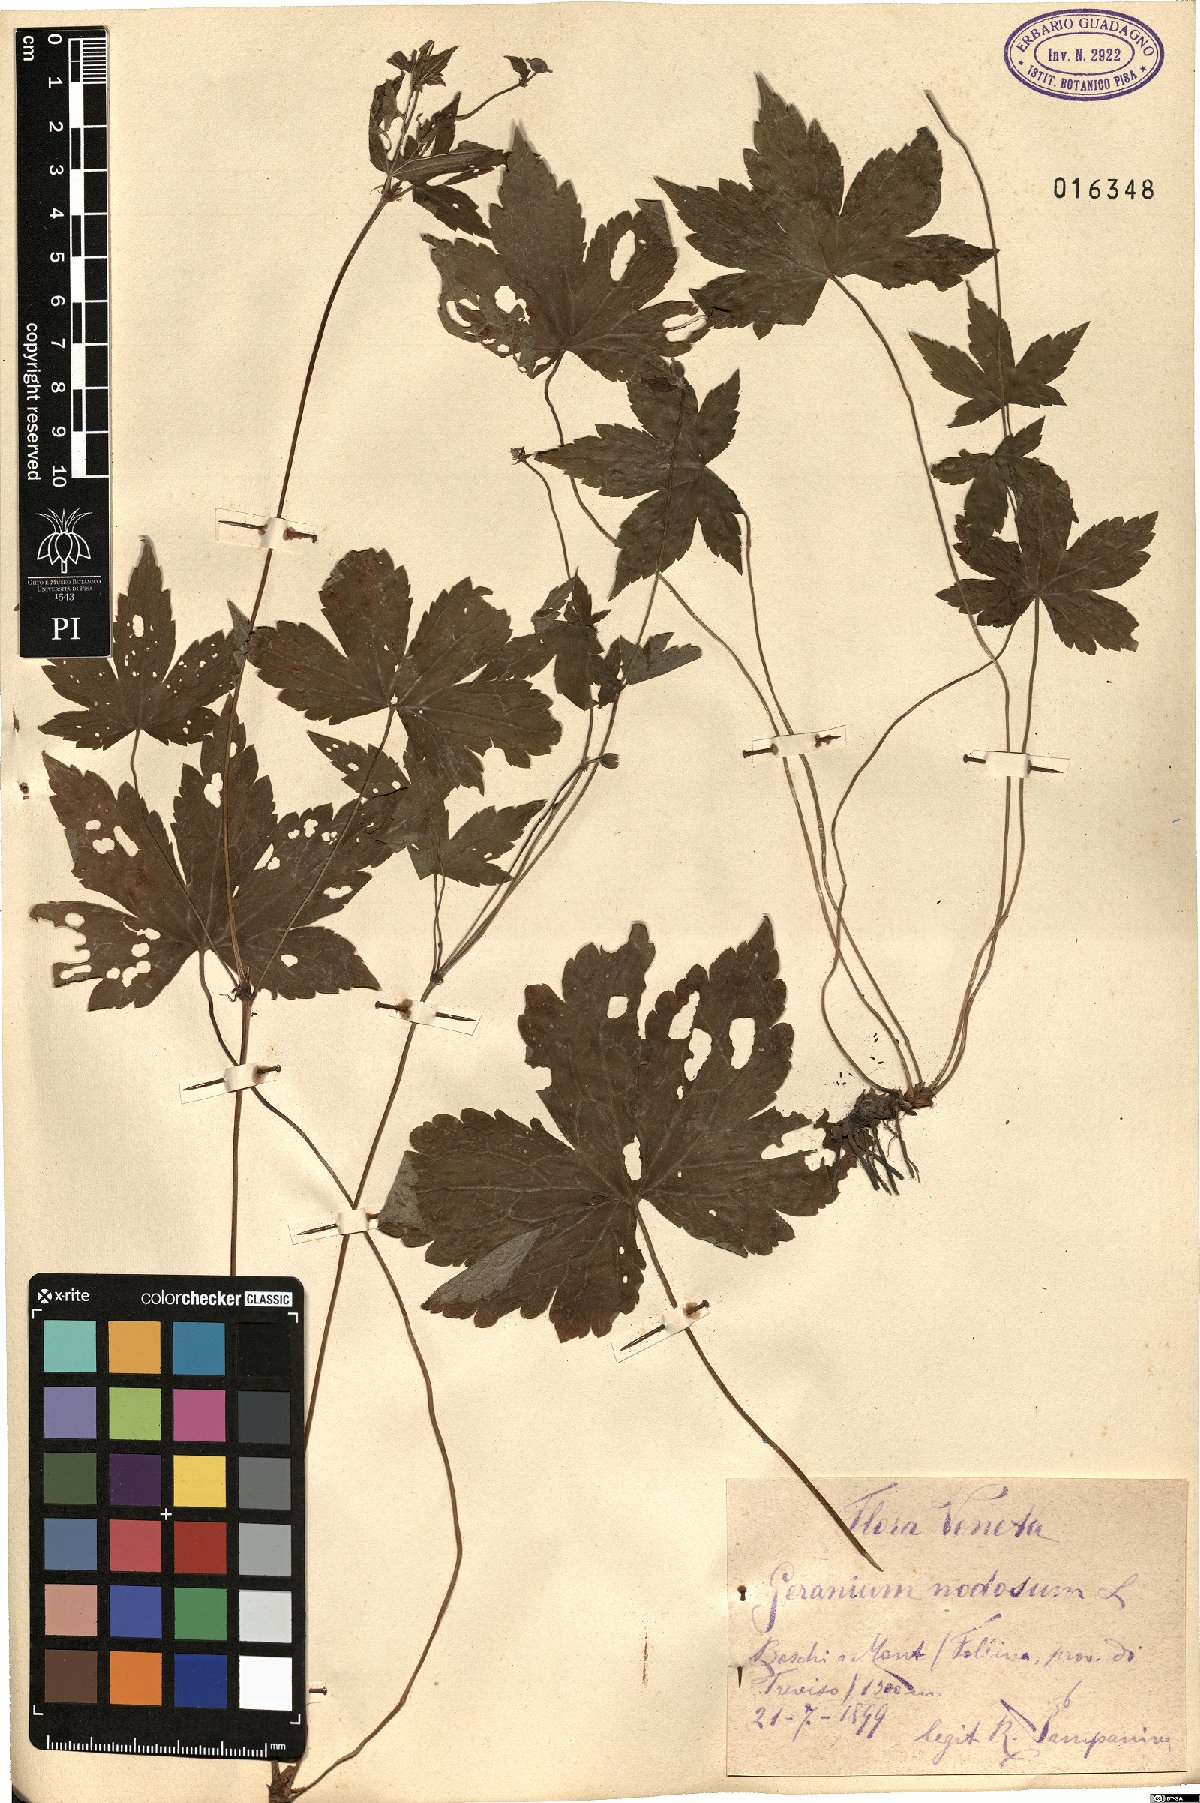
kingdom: Plantae
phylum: Tracheophyta
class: Magnoliopsida
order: Geraniales
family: Geraniaceae
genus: Geranium
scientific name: Geranium nodosum
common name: Knotted crane's-bill
